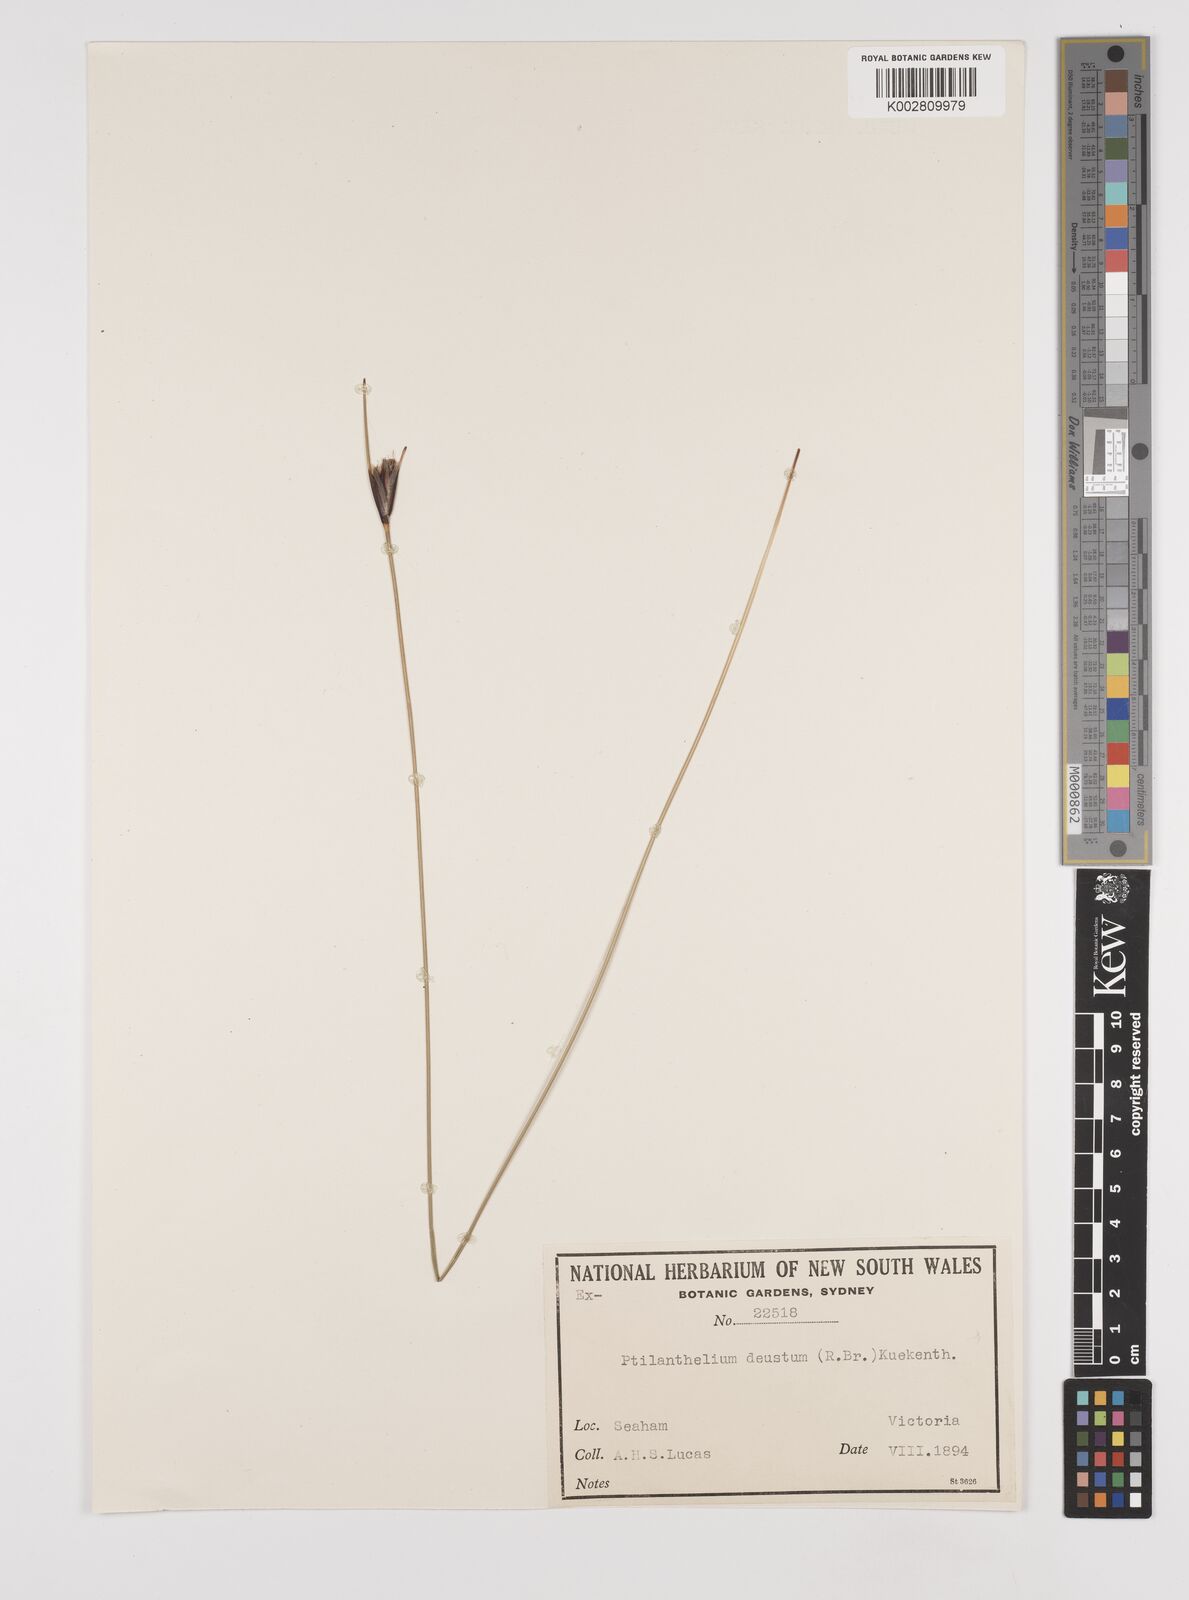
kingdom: Plantae
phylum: Tracheophyta
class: Liliopsida
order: Poales
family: Cyperaceae
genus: Ptilothrix
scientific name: Ptilothrix deusta
